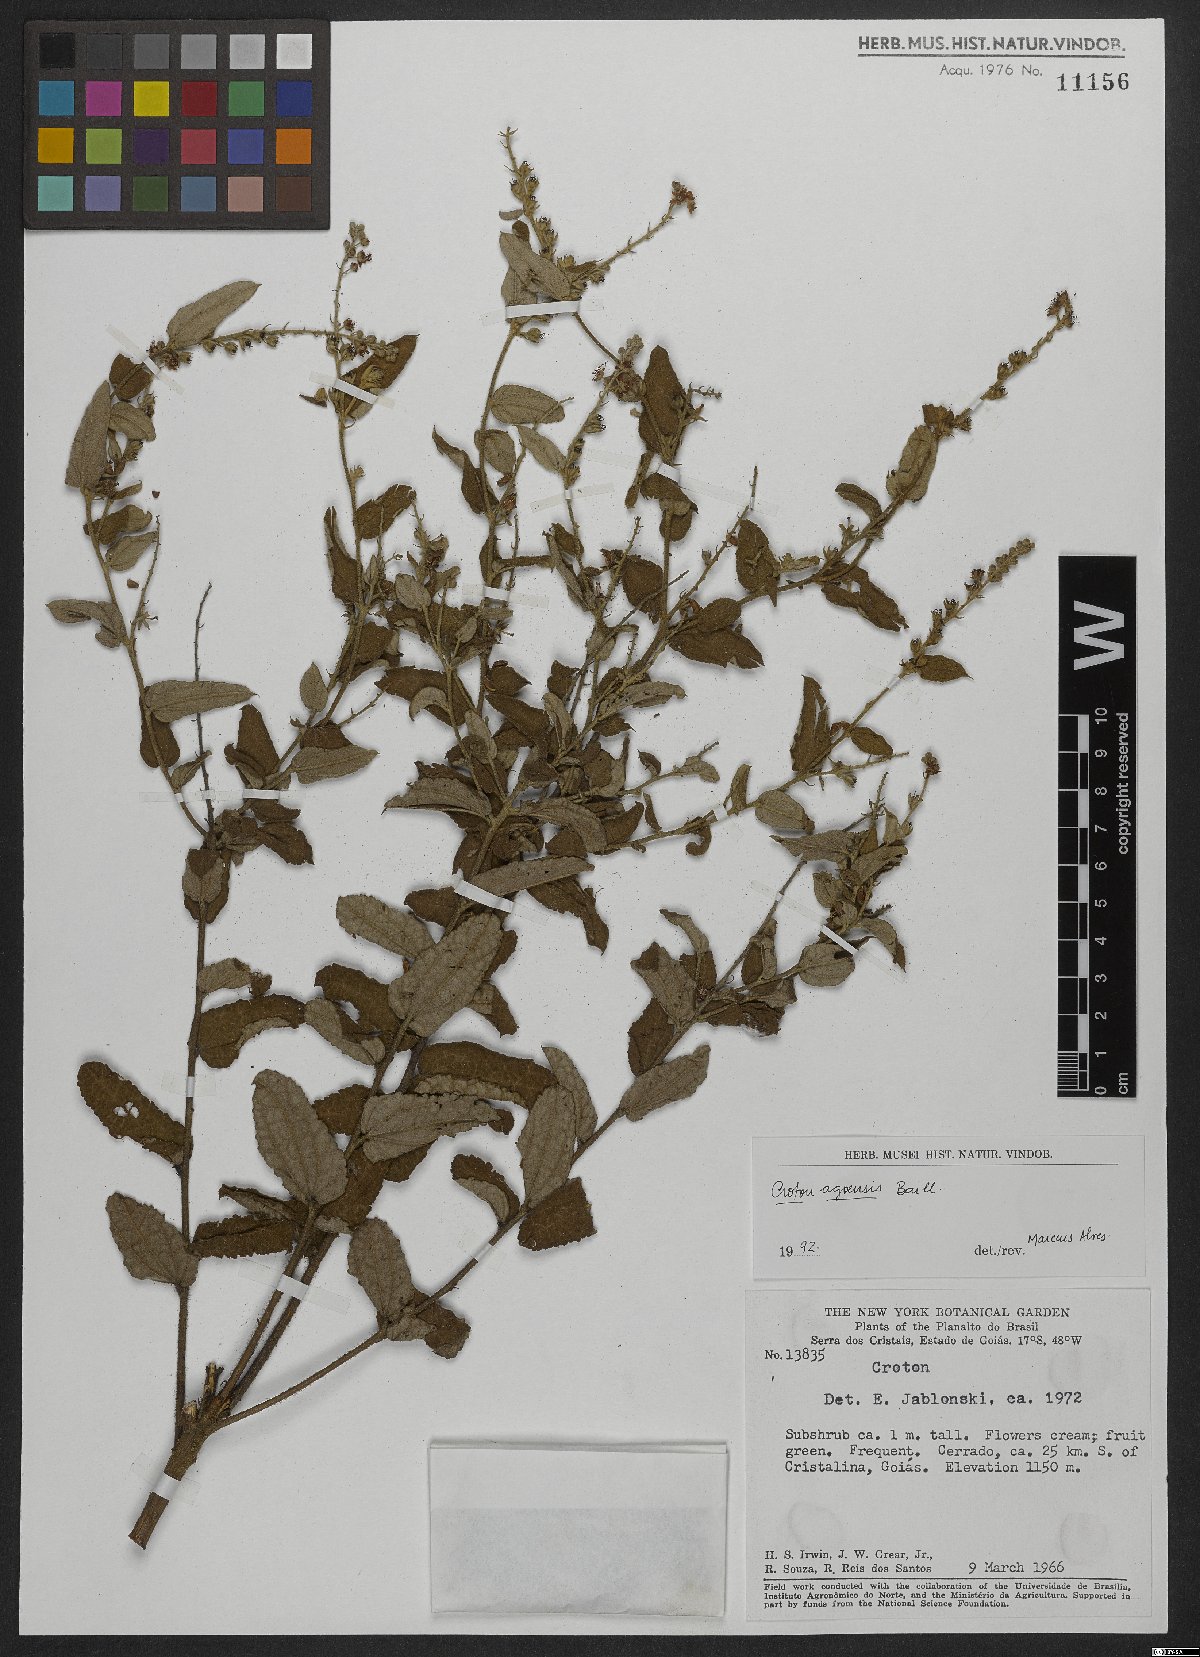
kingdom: Plantae
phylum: Tracheophyta
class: Magnoliopsida
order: Malpighiales
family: Euphorbiaceae
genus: Croton
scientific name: Croton agoensis
